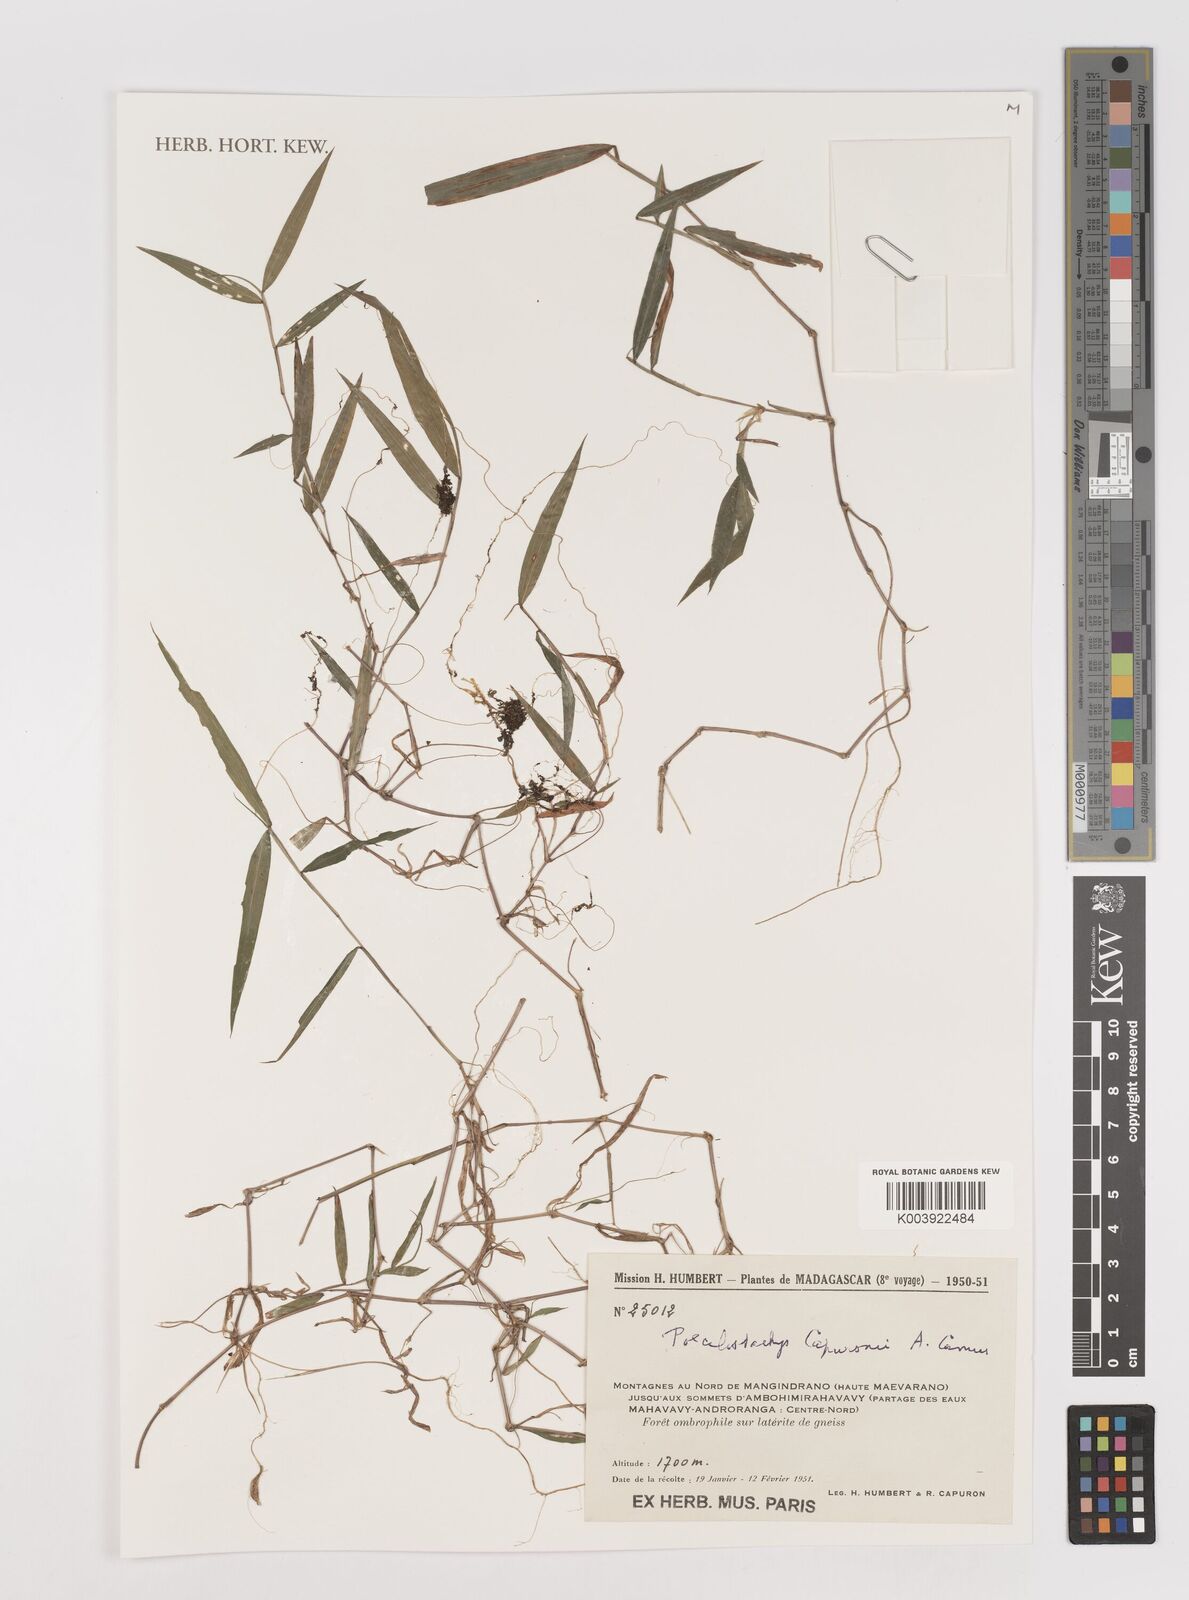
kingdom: Plantae
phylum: Tracheophyta
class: Liliopsida
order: Poales
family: Poaceae
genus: Poecilostachys
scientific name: Poecilostachys hildebrandtii
